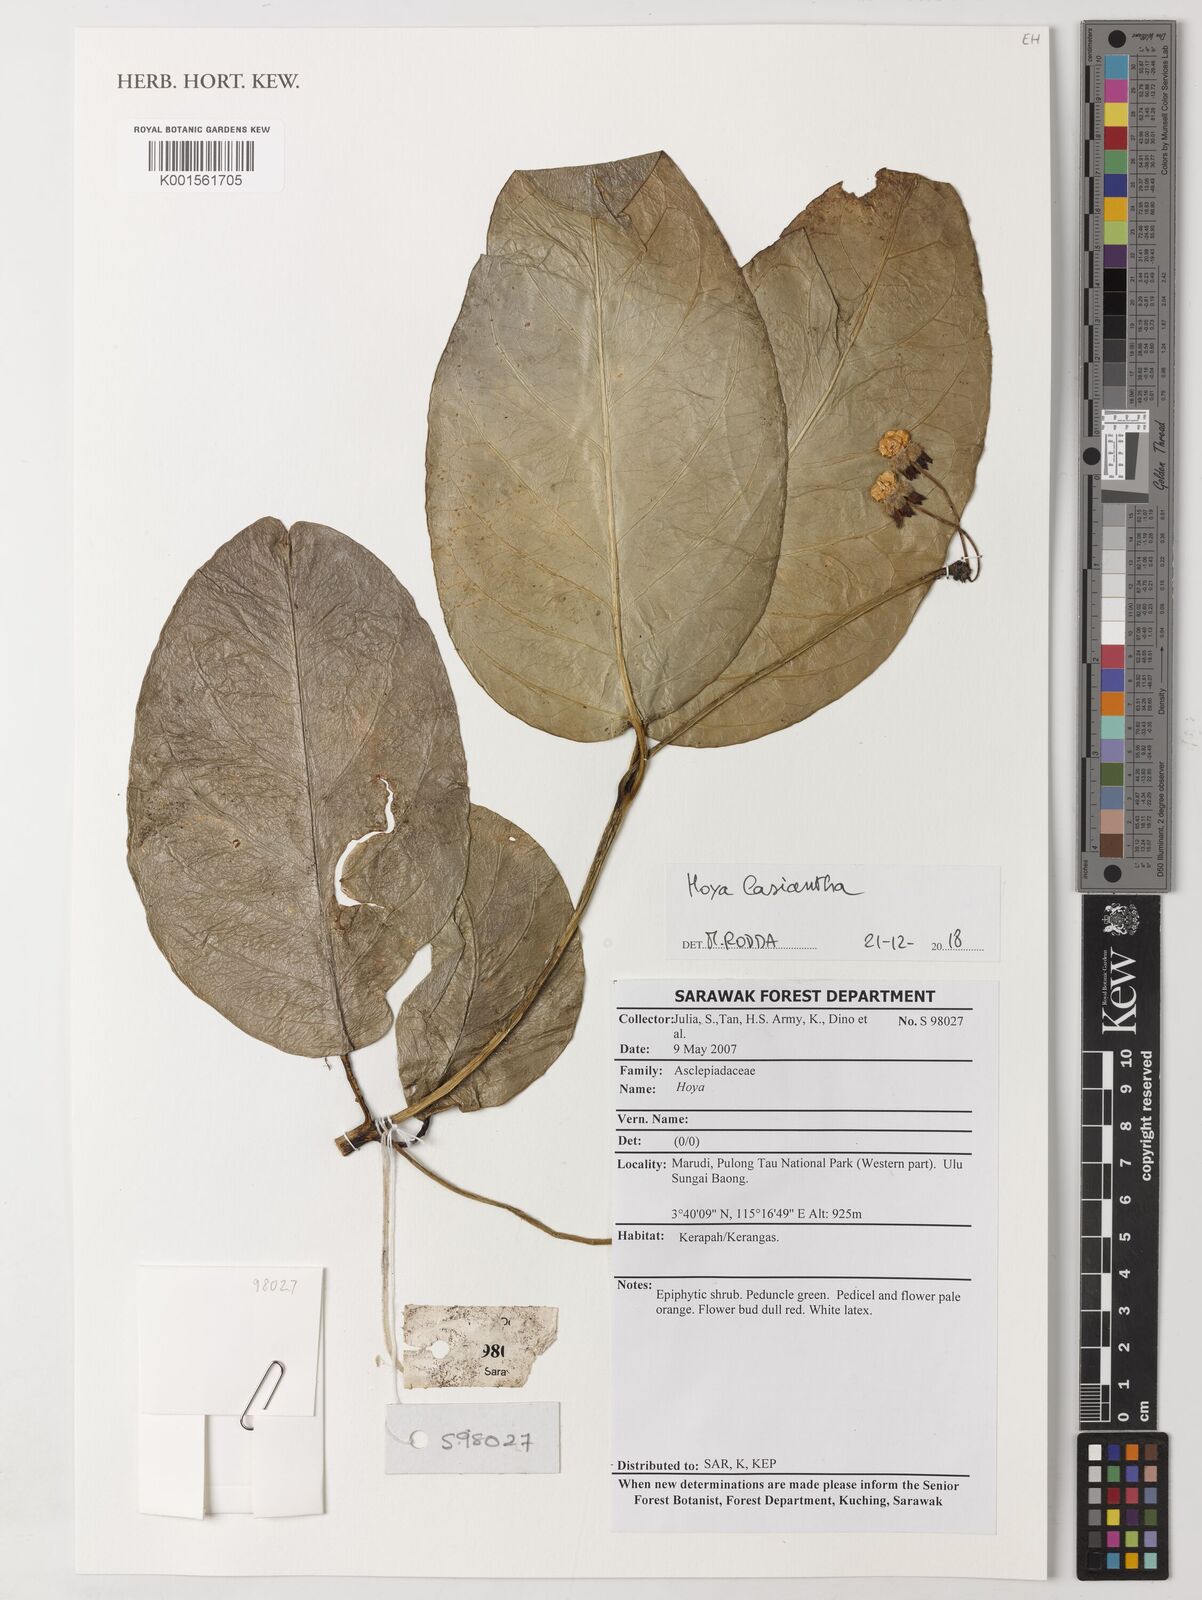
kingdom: Plantae
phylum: Tracheophyta
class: Magnoliopsida
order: Gentianales
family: Apocynaceae
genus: Hoya
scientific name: Hoya dasyantha
